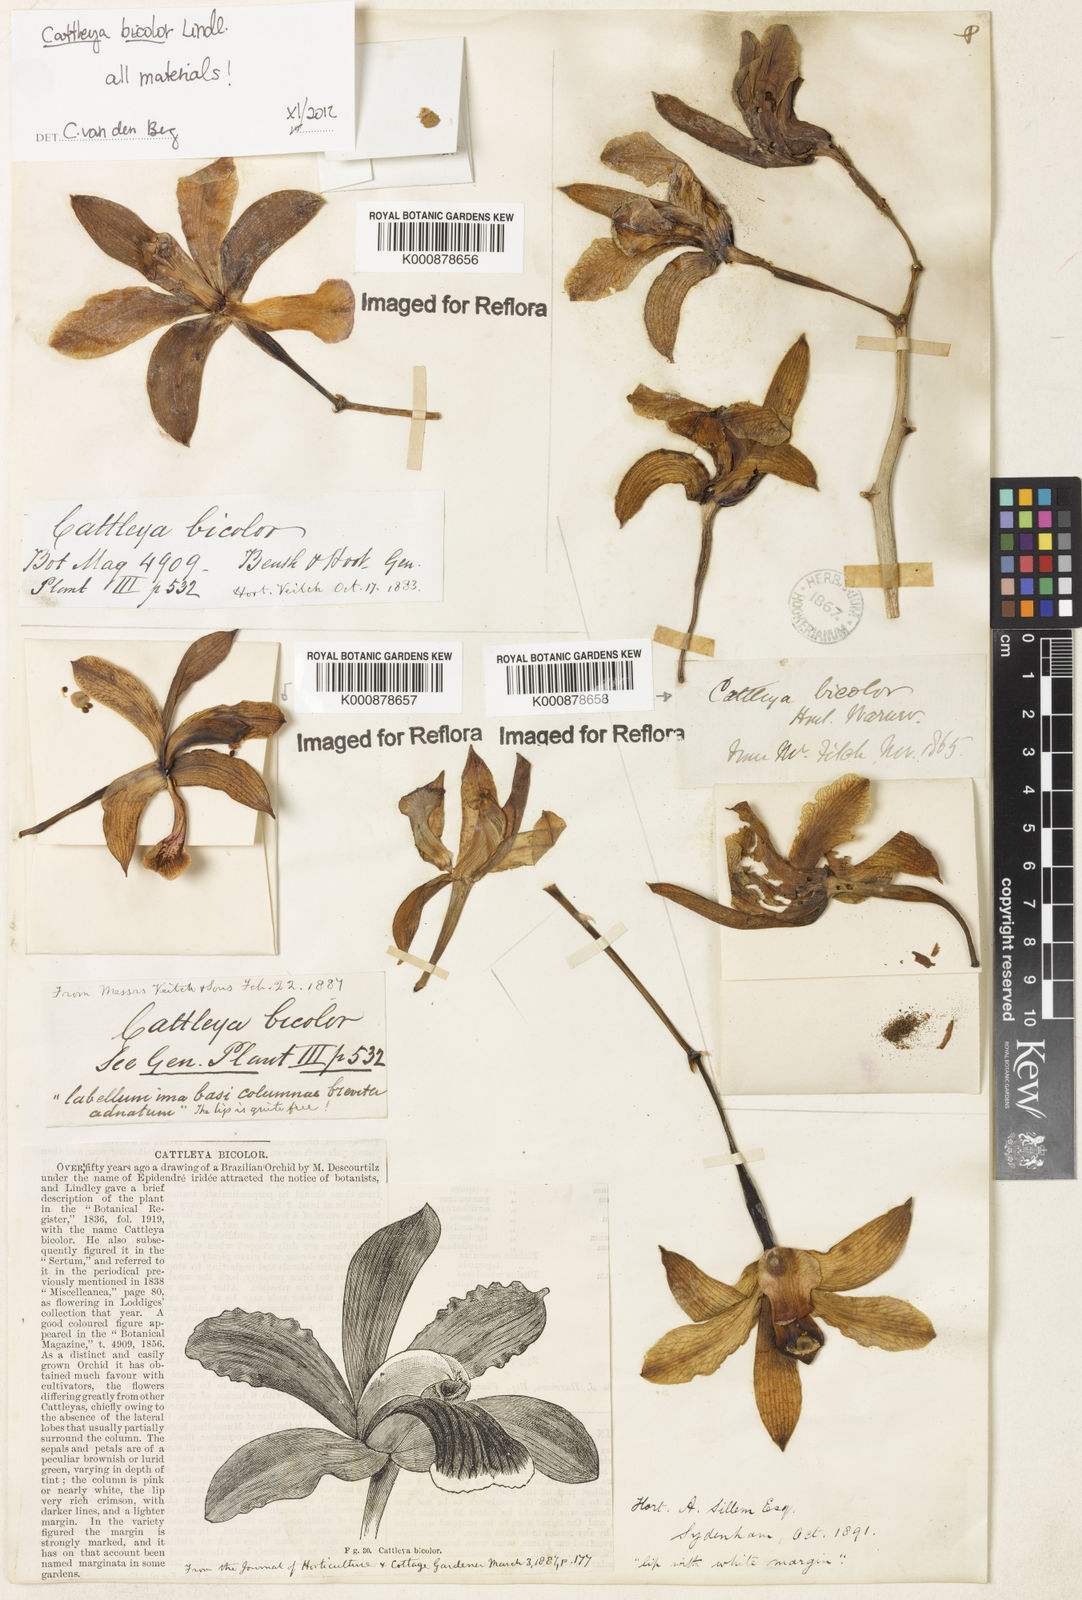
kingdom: Plantae
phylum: Tracheophyta
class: Liliopsida
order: Asparagales
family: Orchidaceae
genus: Cattleya
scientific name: Cattleya bicolor
